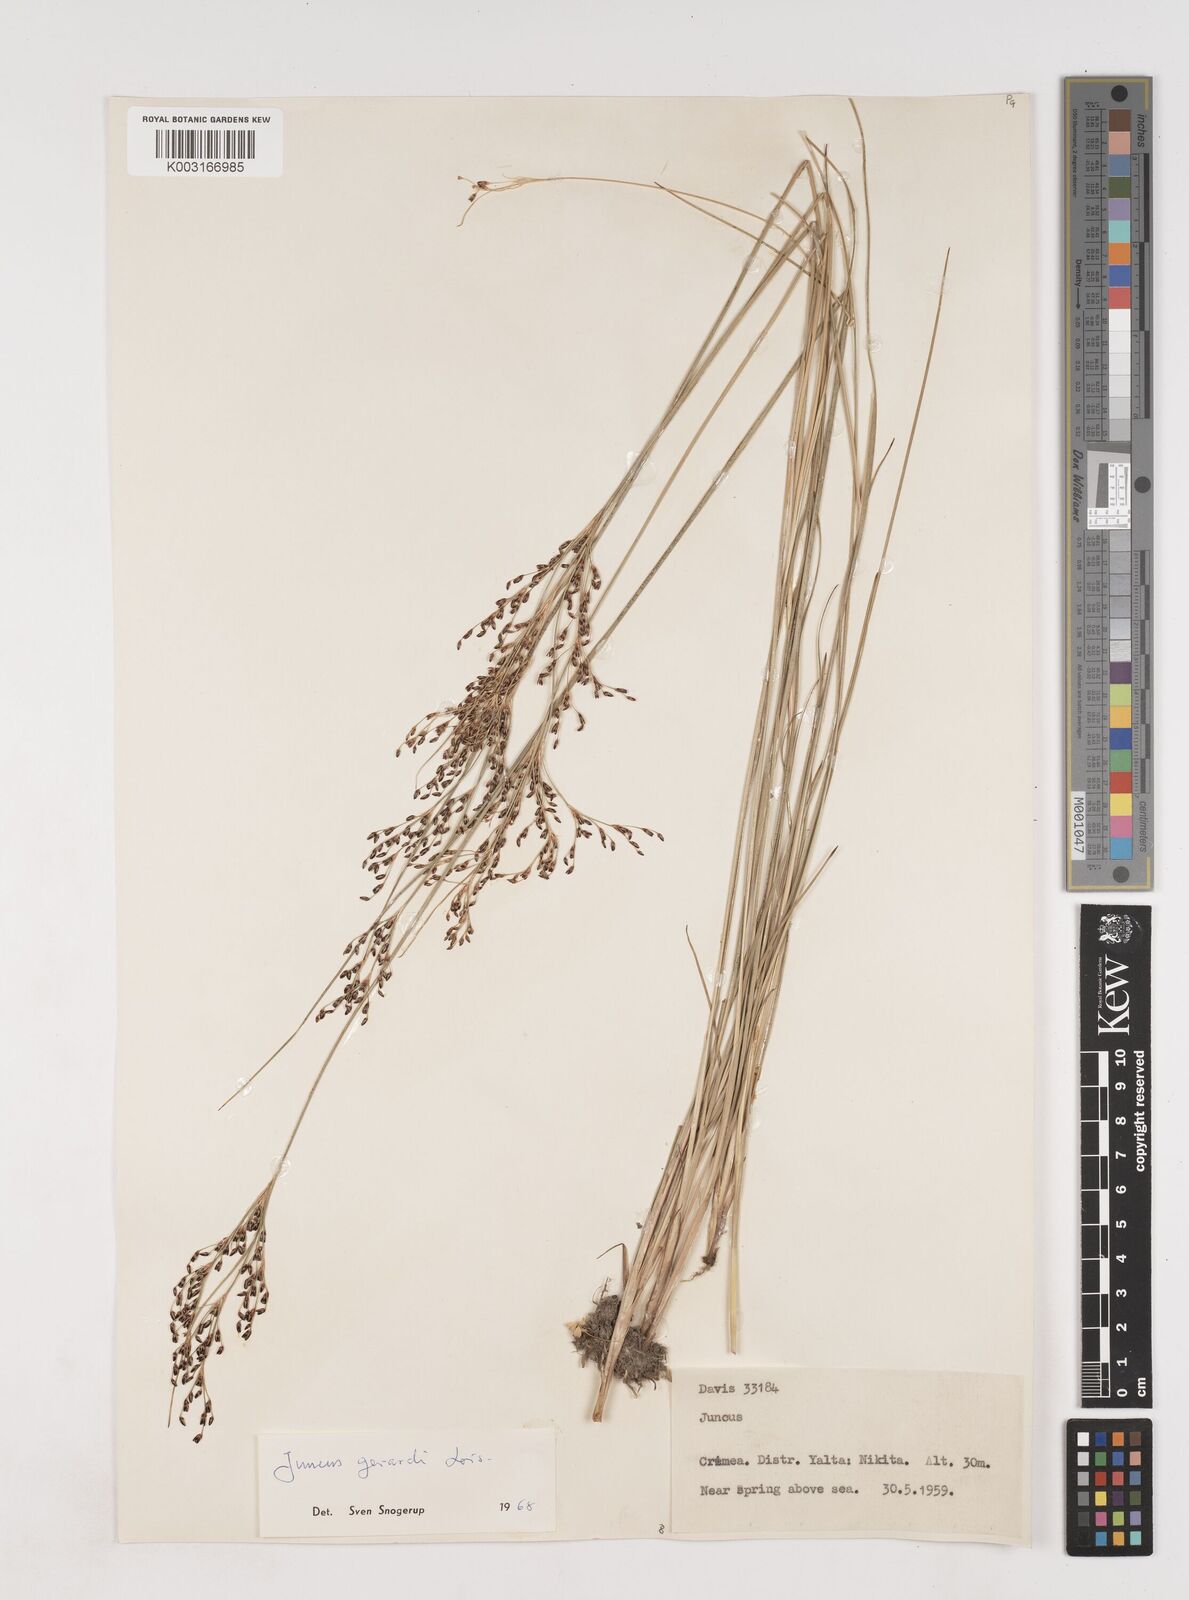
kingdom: Plantae
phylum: Tracheophyta
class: Liliopsida
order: Poales
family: Juncaceae
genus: Juncus
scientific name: Juncus gerardi
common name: Saltmarsh rush
